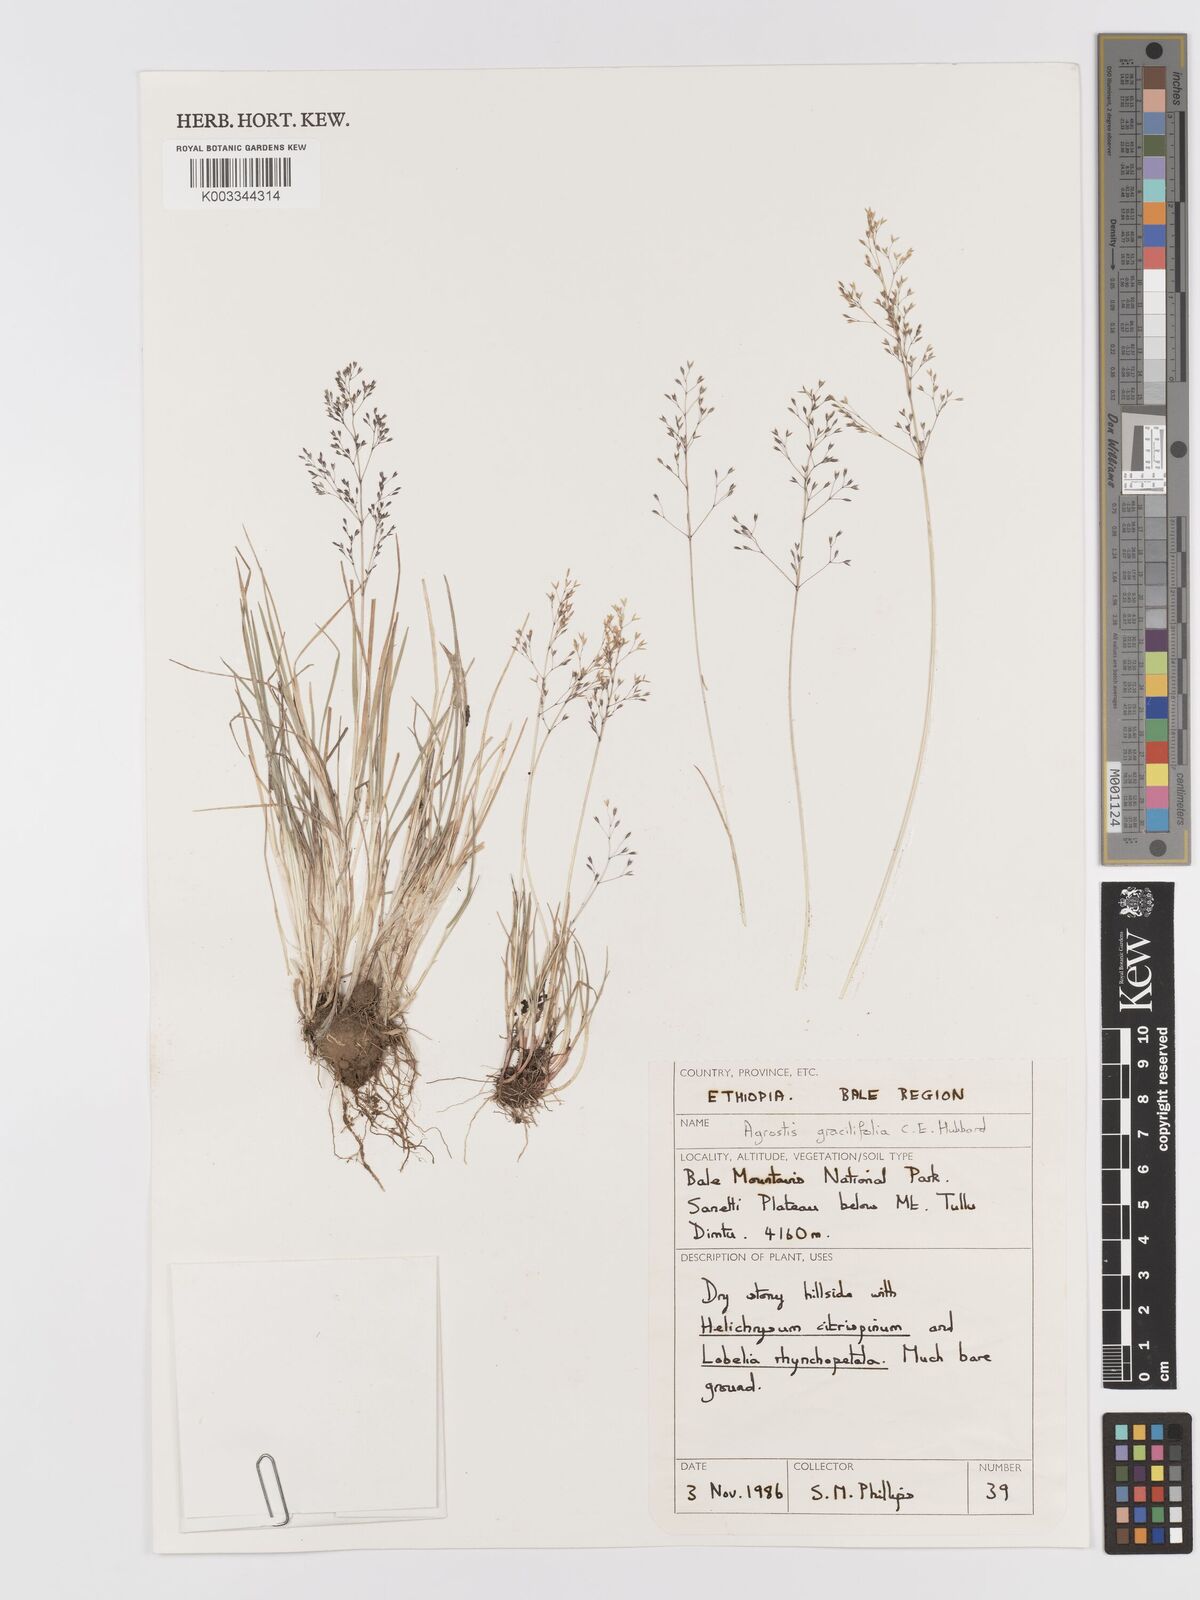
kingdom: Plantae
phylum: Tracheophyta
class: Liliopsida
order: Poales
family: Poaceae
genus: Agrostis
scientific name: Agrostis gracilifolia
